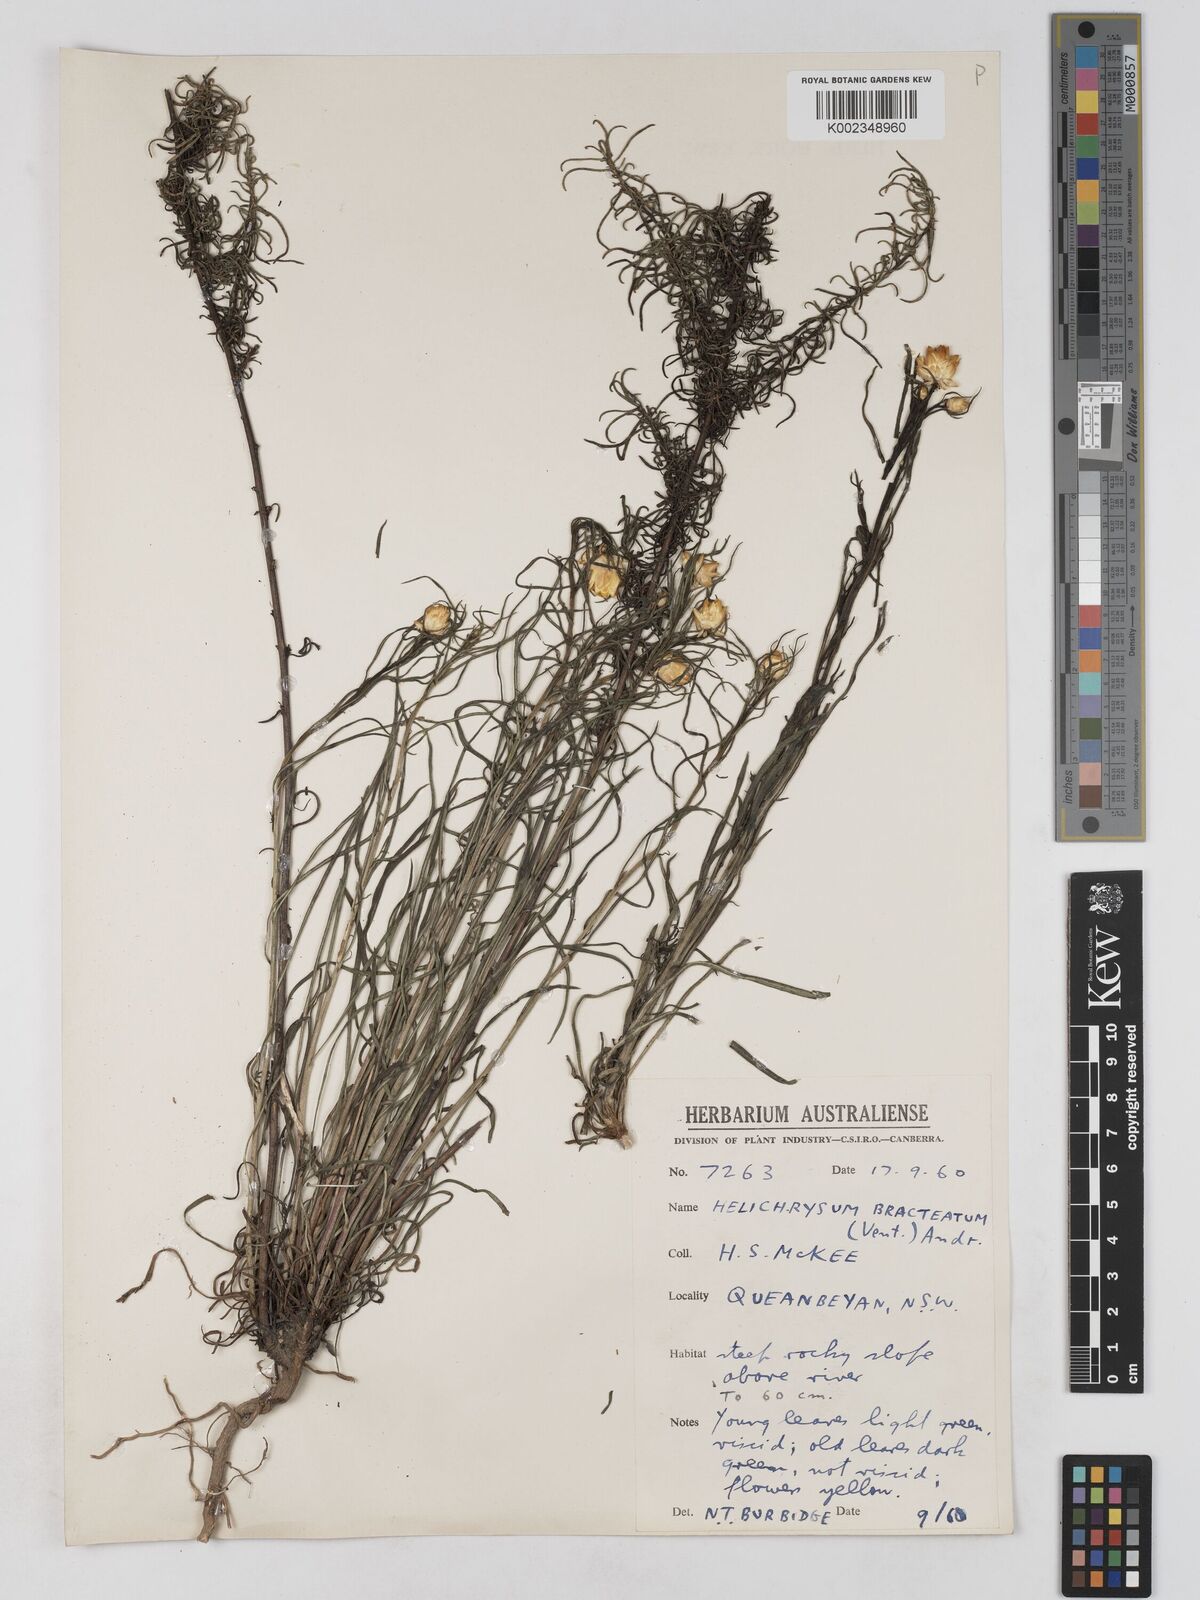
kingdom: Plantae
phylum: Tracheophyta
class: Magnoliopsida
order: Asterales
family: Asteraceae
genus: Xerochrysum
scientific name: Xerochrysum bracteatum
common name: Bracted strawflower
